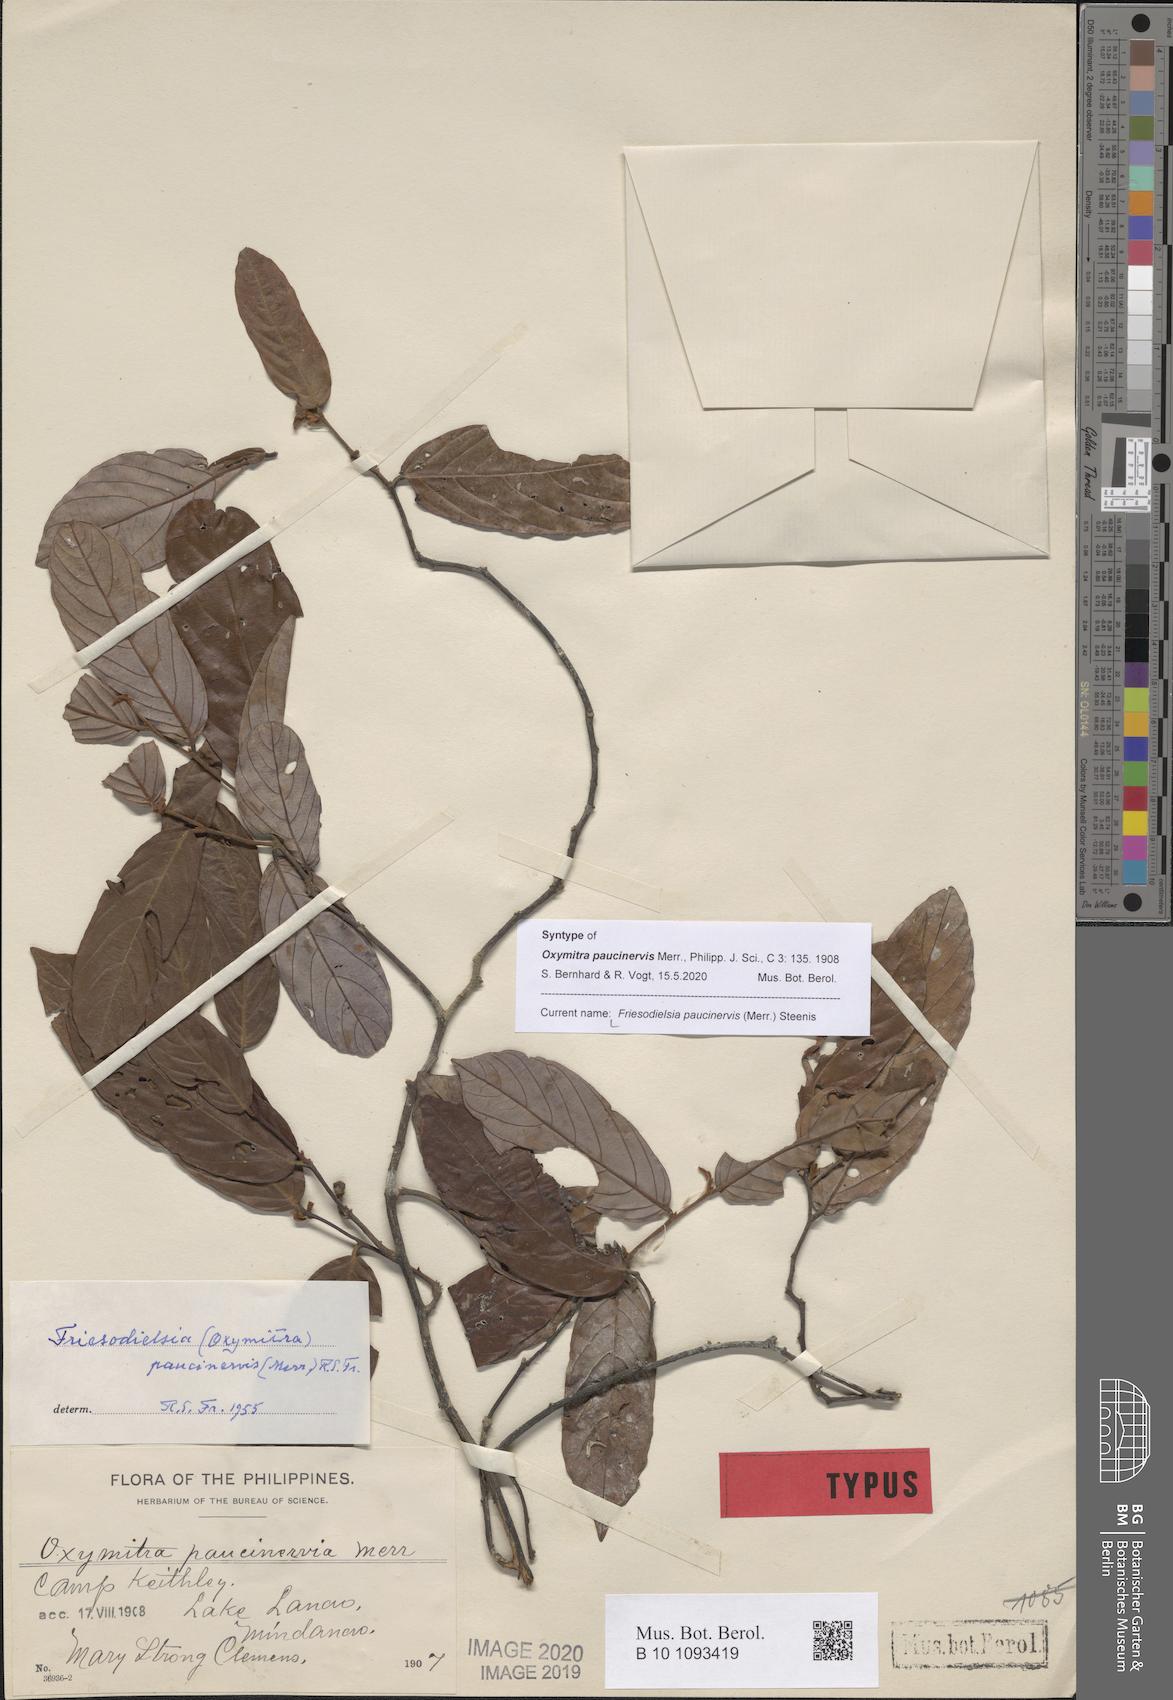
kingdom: Plantae
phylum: Tracheophyta
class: Magnoliopsida
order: Magnoliales
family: Annonaceae
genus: Friesodielsia
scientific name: Friesodielsia paucinervis
